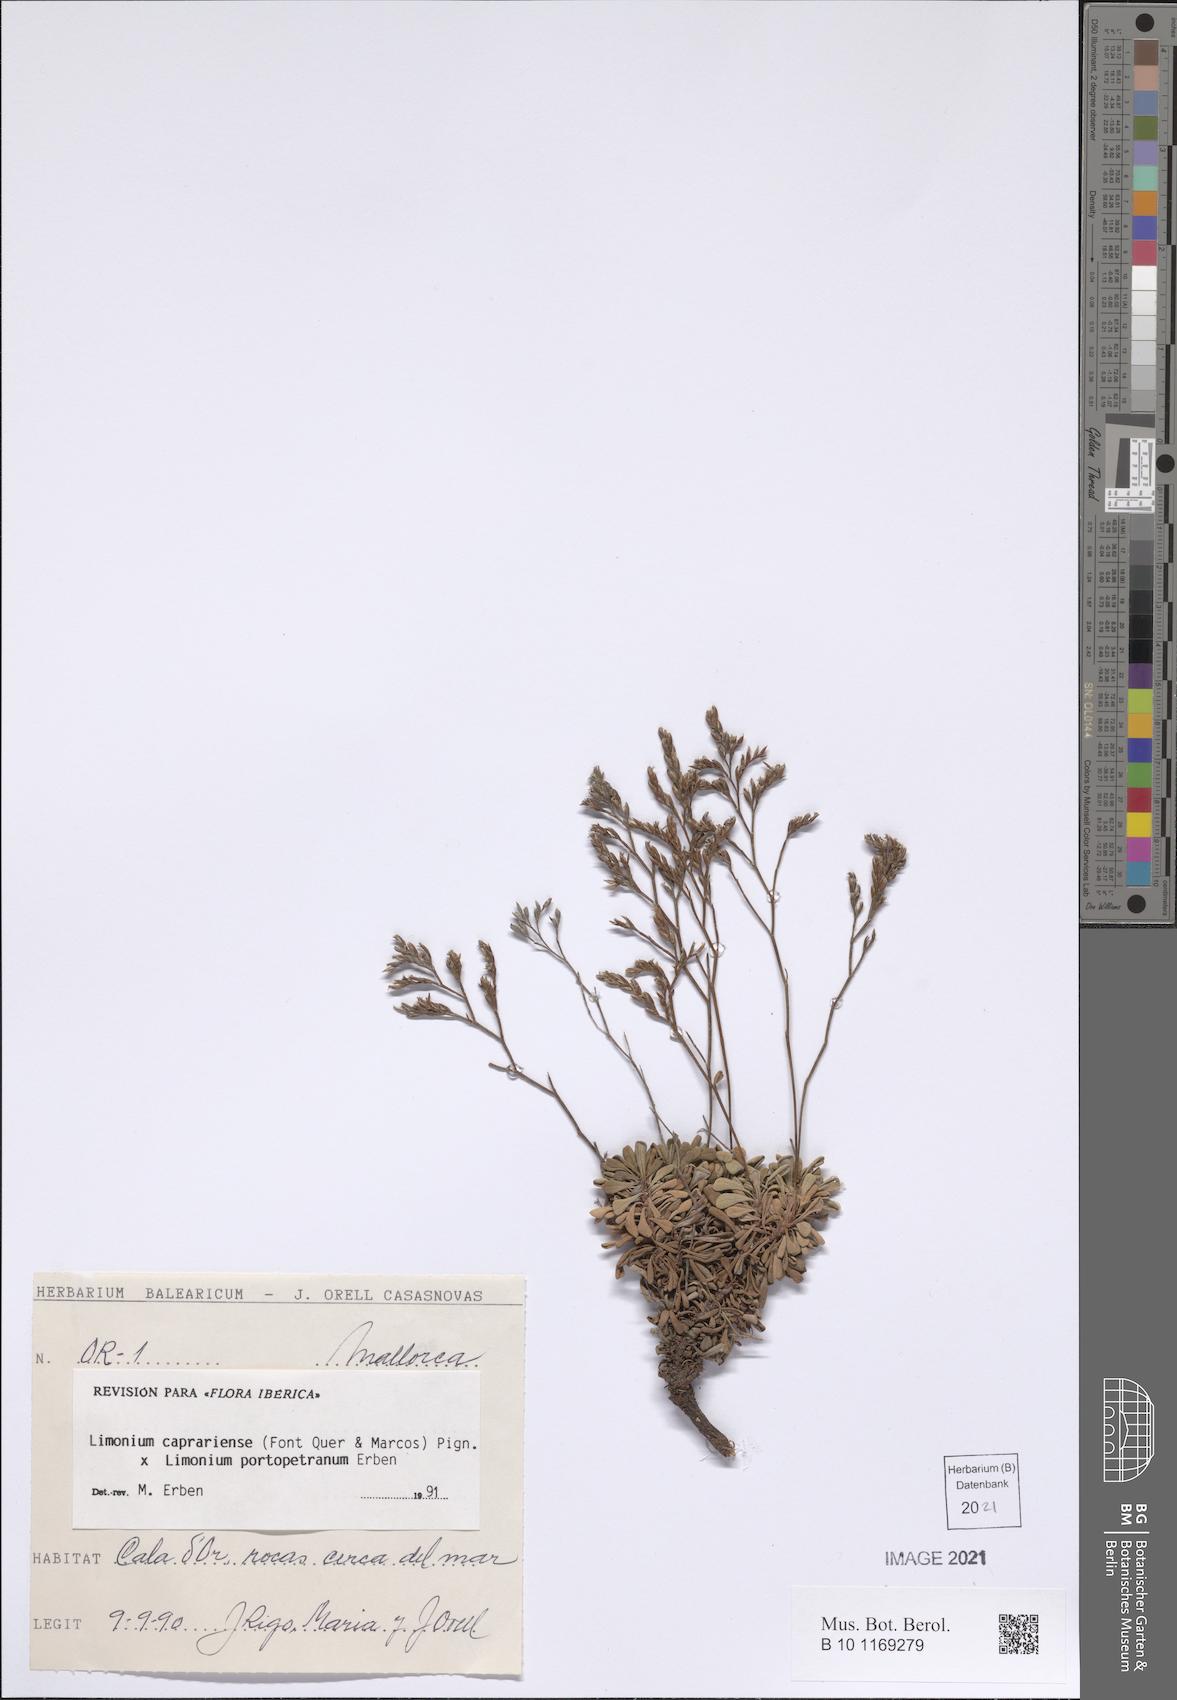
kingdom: Plantae
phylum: Tracheophyta
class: Magnoliopsida
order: Caryophyllales
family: Plumbaginaceae
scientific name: Plumbaginaceae
